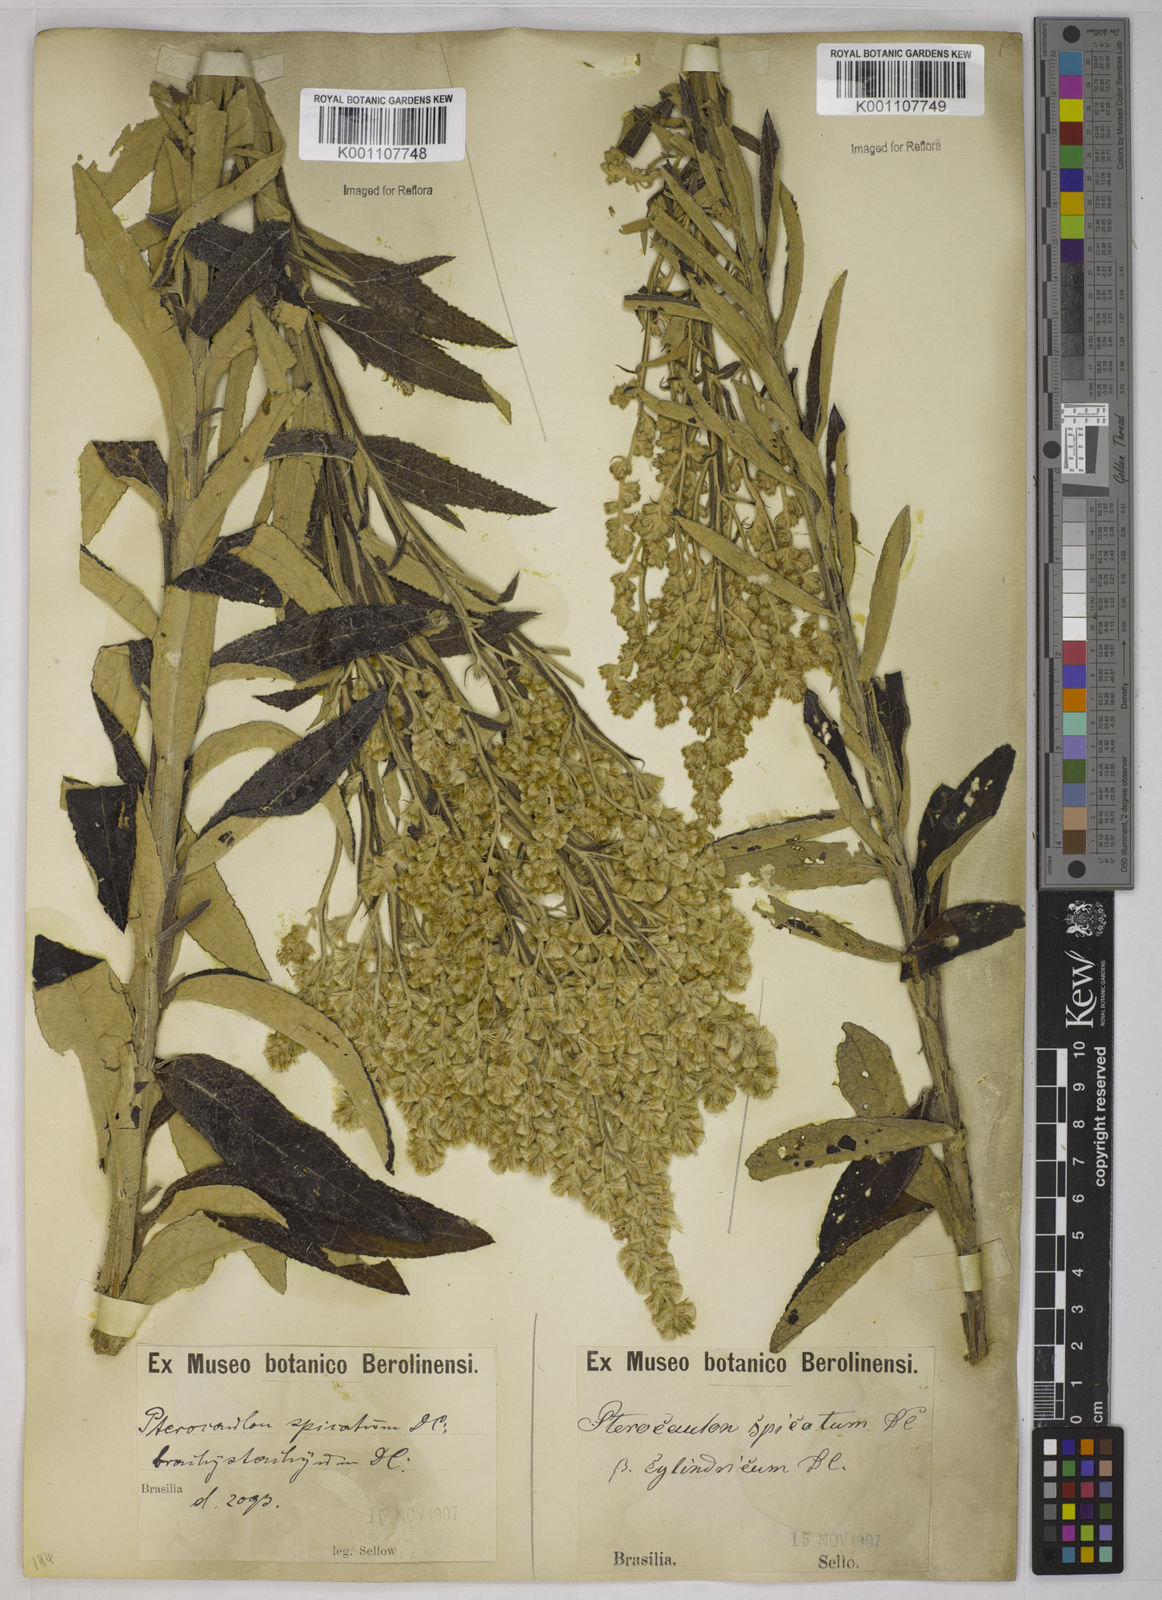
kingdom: Plantae
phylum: Tracheophyta
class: Magnoliopsida
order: Asterales
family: Asteraceae
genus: Pterocaulon
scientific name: Pterocaulon alopecuroides
